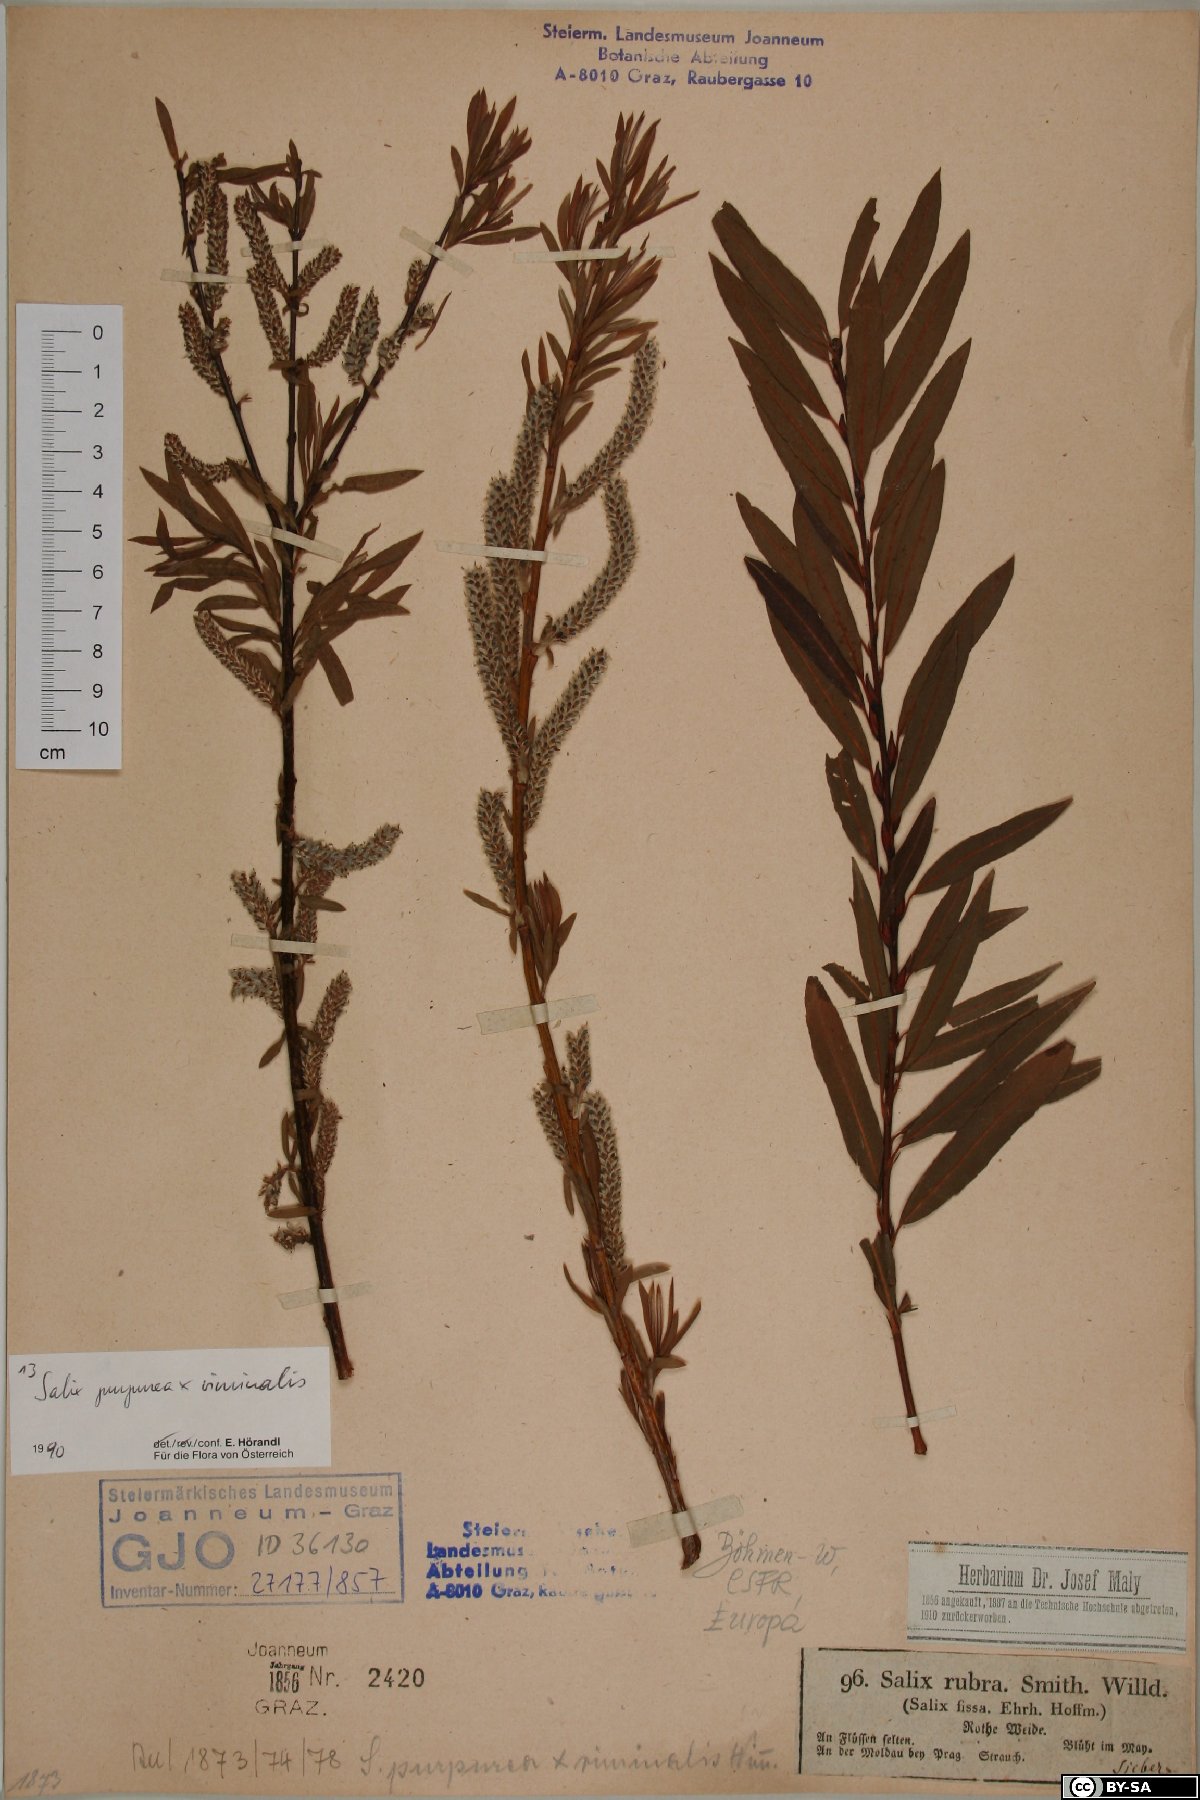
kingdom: Plantae
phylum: Tracheophyta
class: Magnoliopsida
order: Malpighiales
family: Salicaceae
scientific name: Salicaceae
